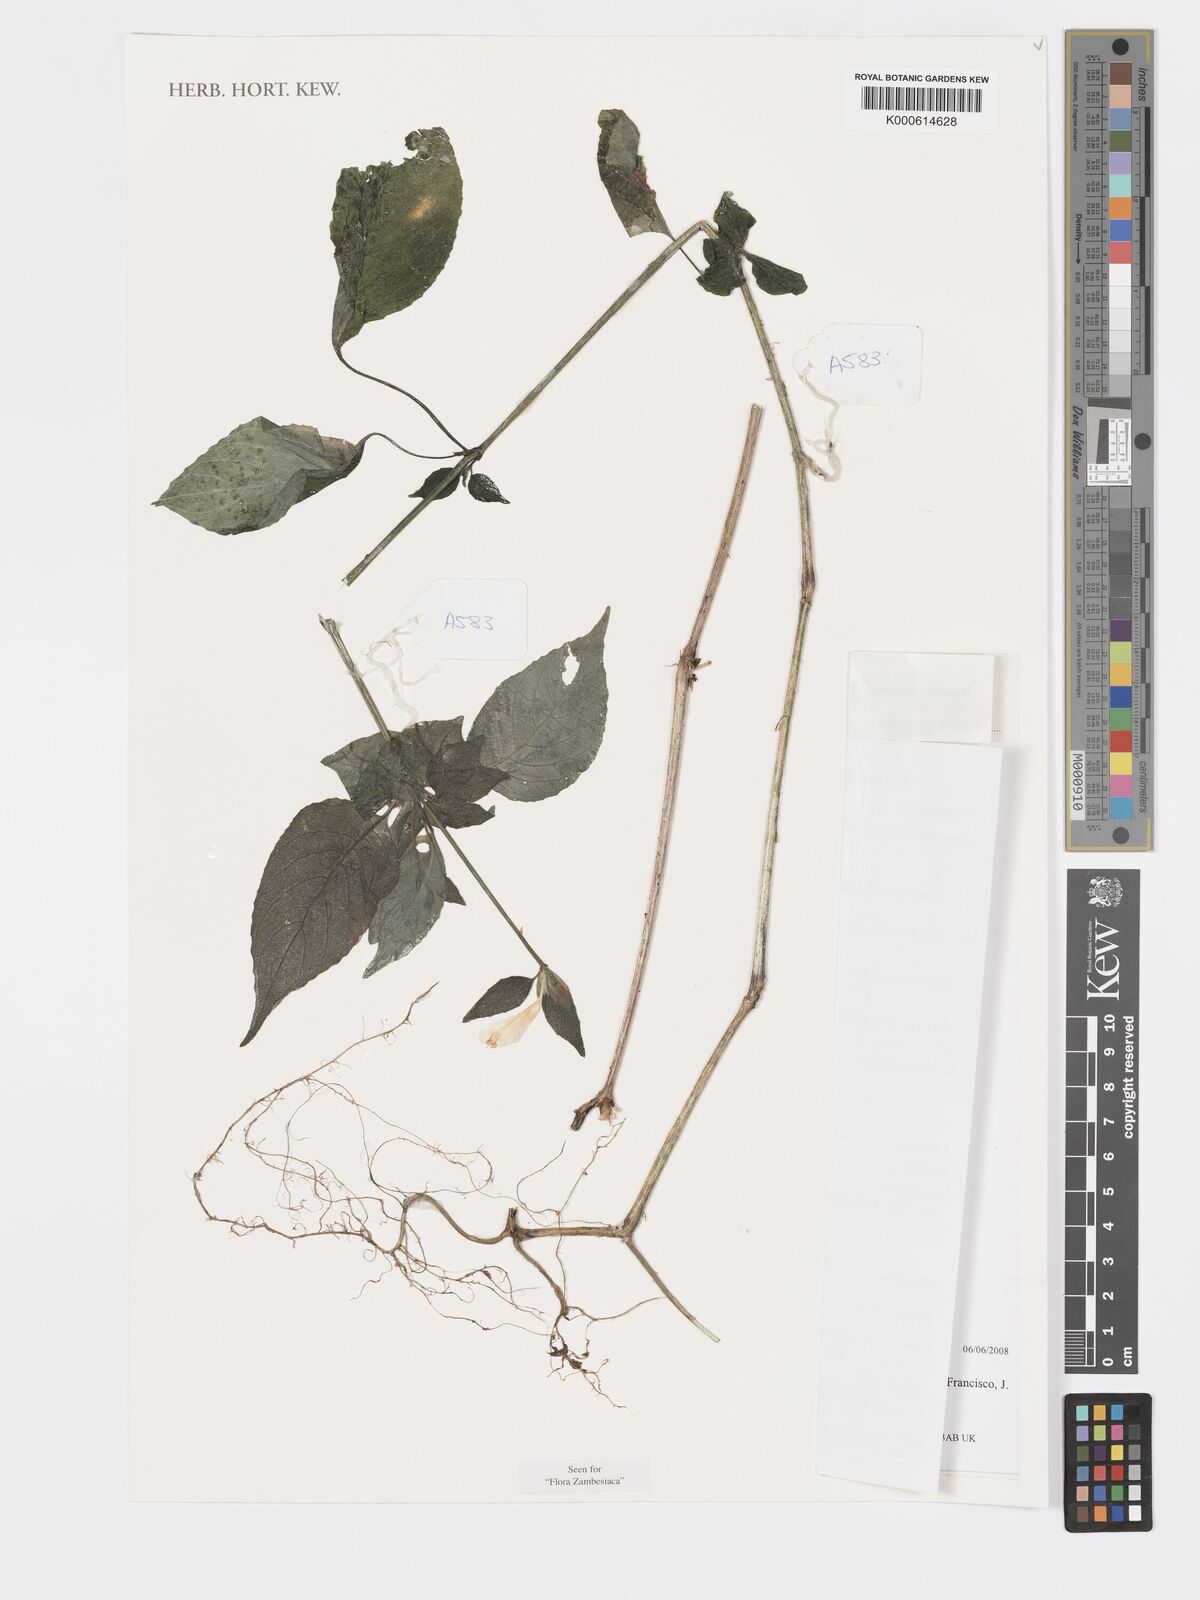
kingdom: Plantae
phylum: Tracheophyta
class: Magnoliopsida
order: Lamiales
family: Acanthaceae
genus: Hypoestes
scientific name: Hypoestes triflora
